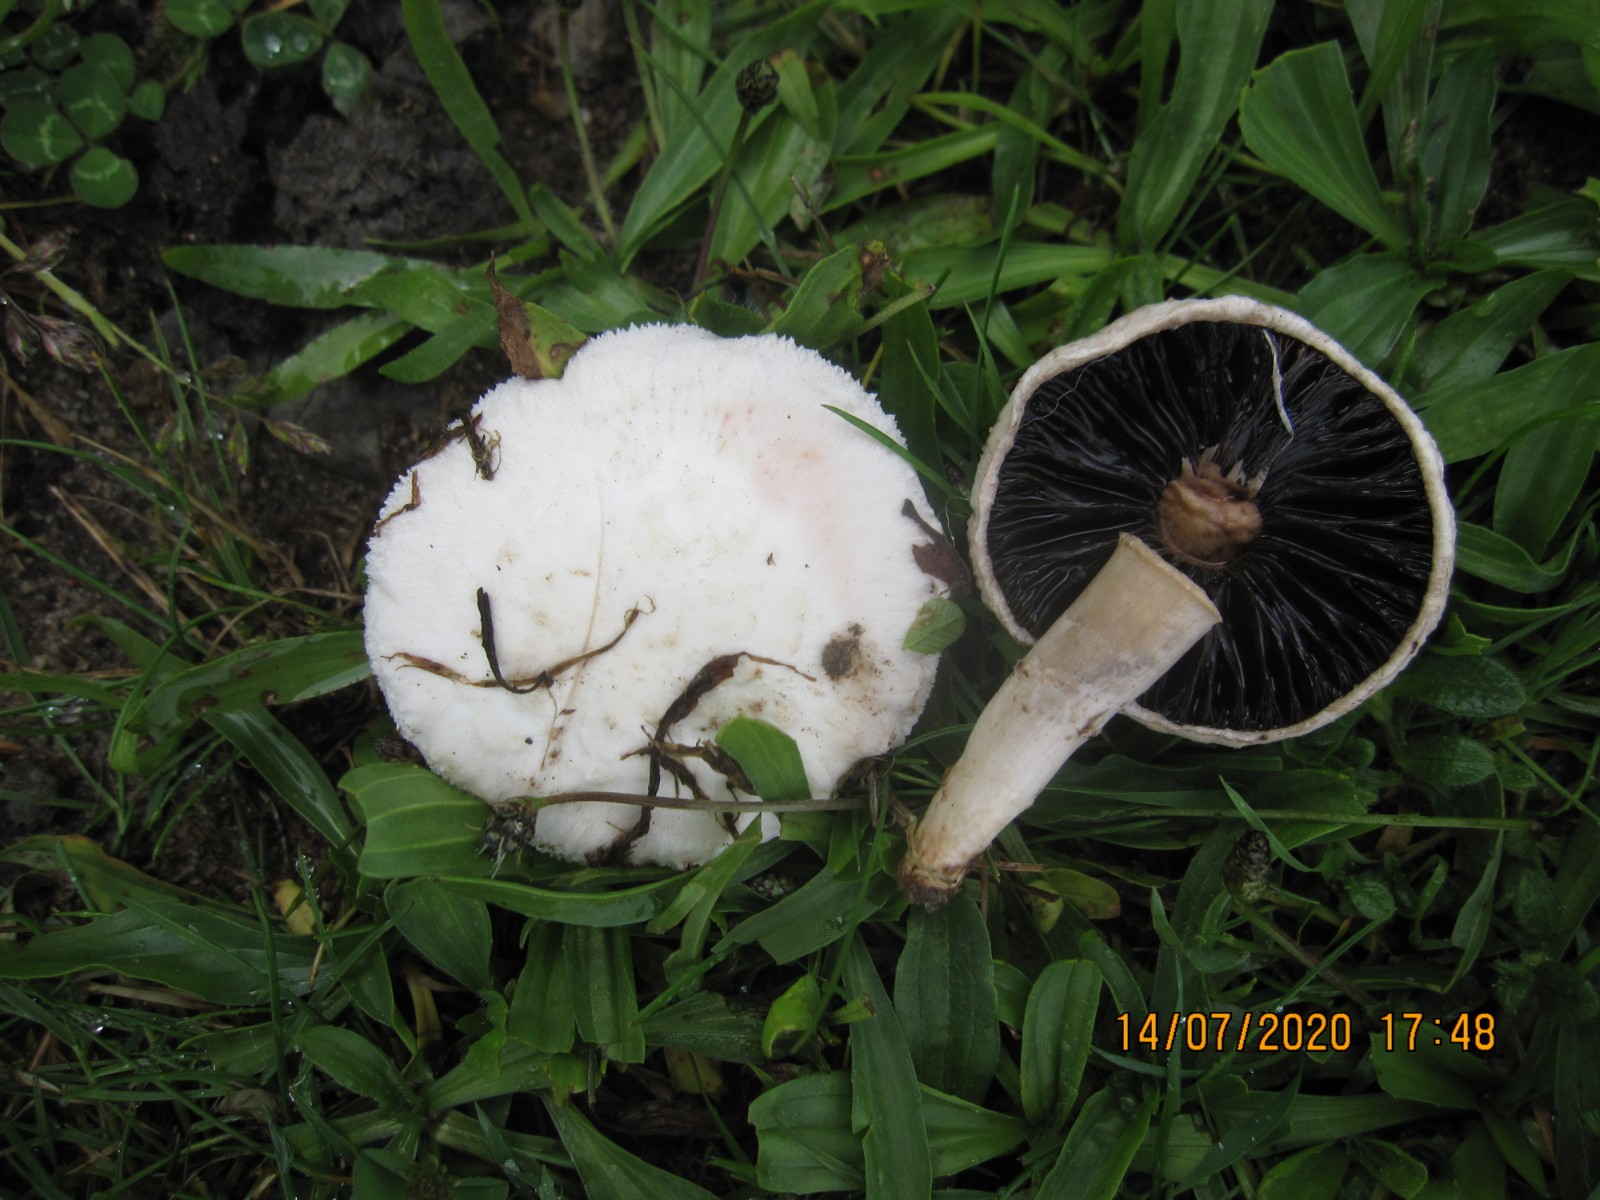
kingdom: Fungi
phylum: Basidiomycota
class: Agaricomycetes
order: Agaricales
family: Agaricaceae
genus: Agaricus
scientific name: Agaricus campestris
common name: mark-champignon
